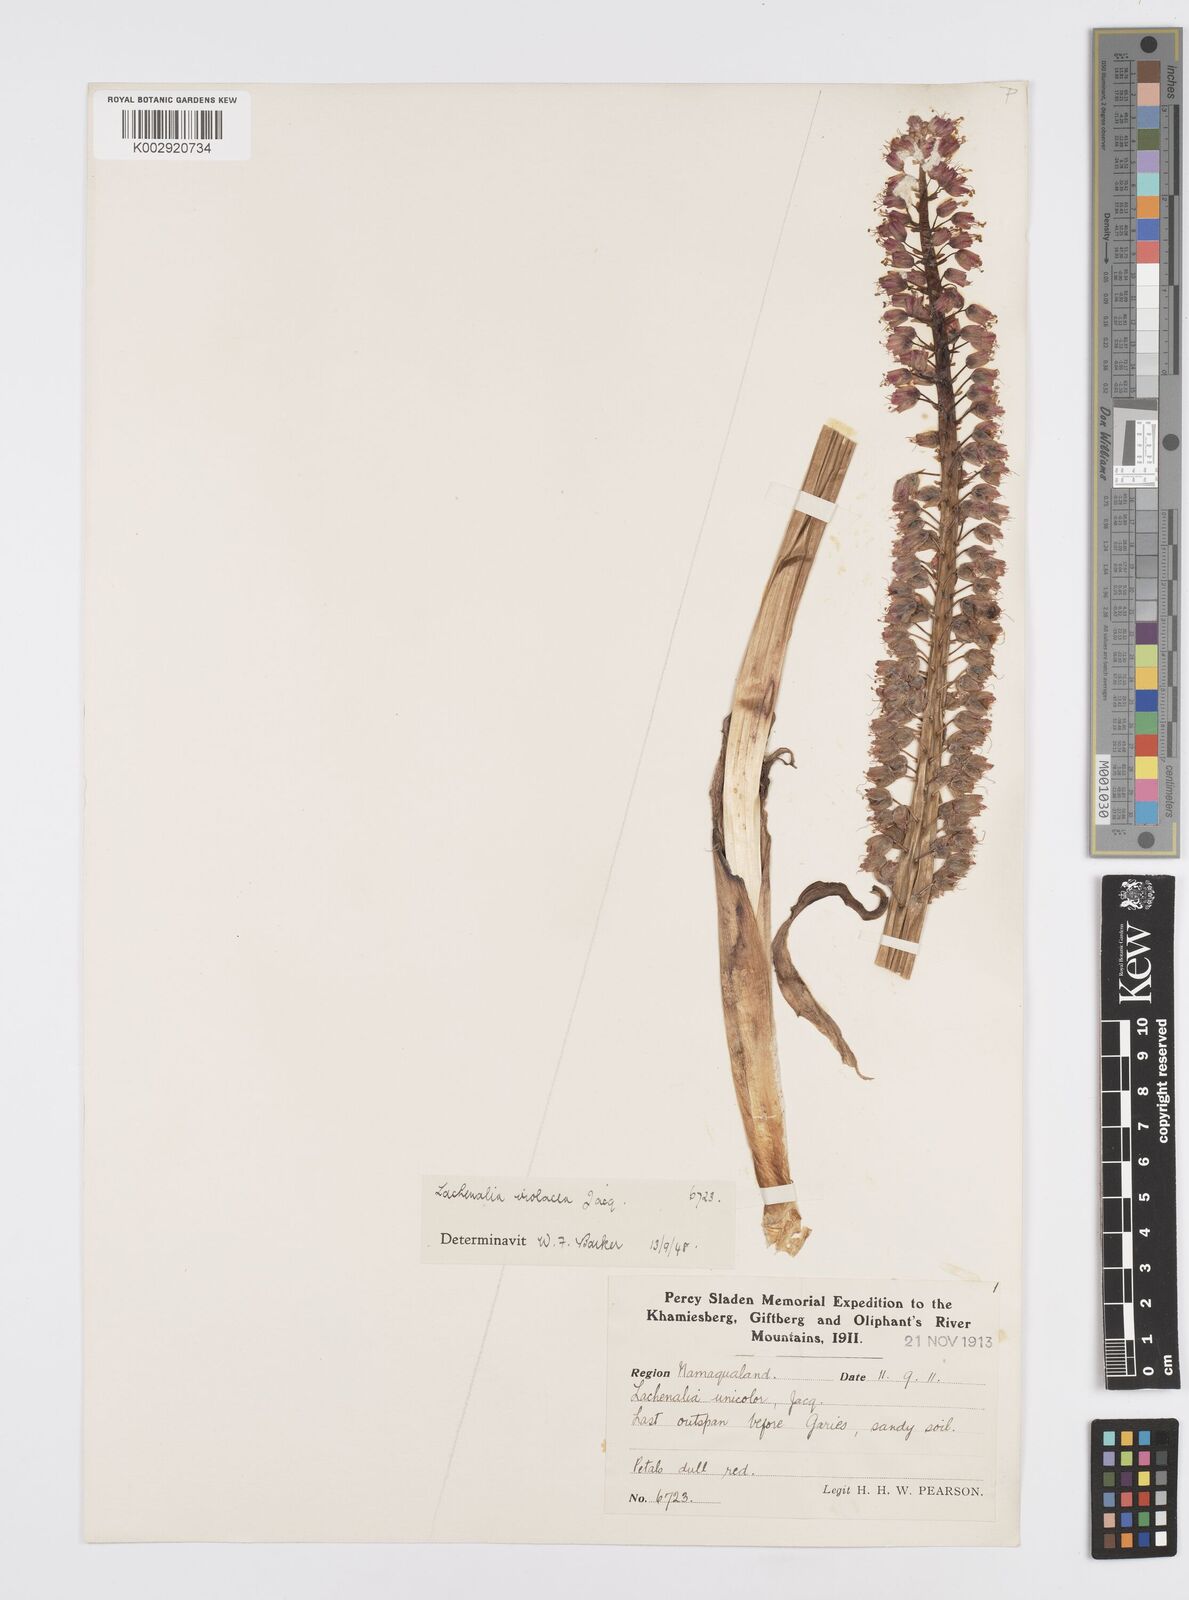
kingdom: Plantae
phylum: Tracheophyta
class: Liliopsida
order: Asparagales
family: Asparagaceae
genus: Lachenalia
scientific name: Lachenalia violacea
